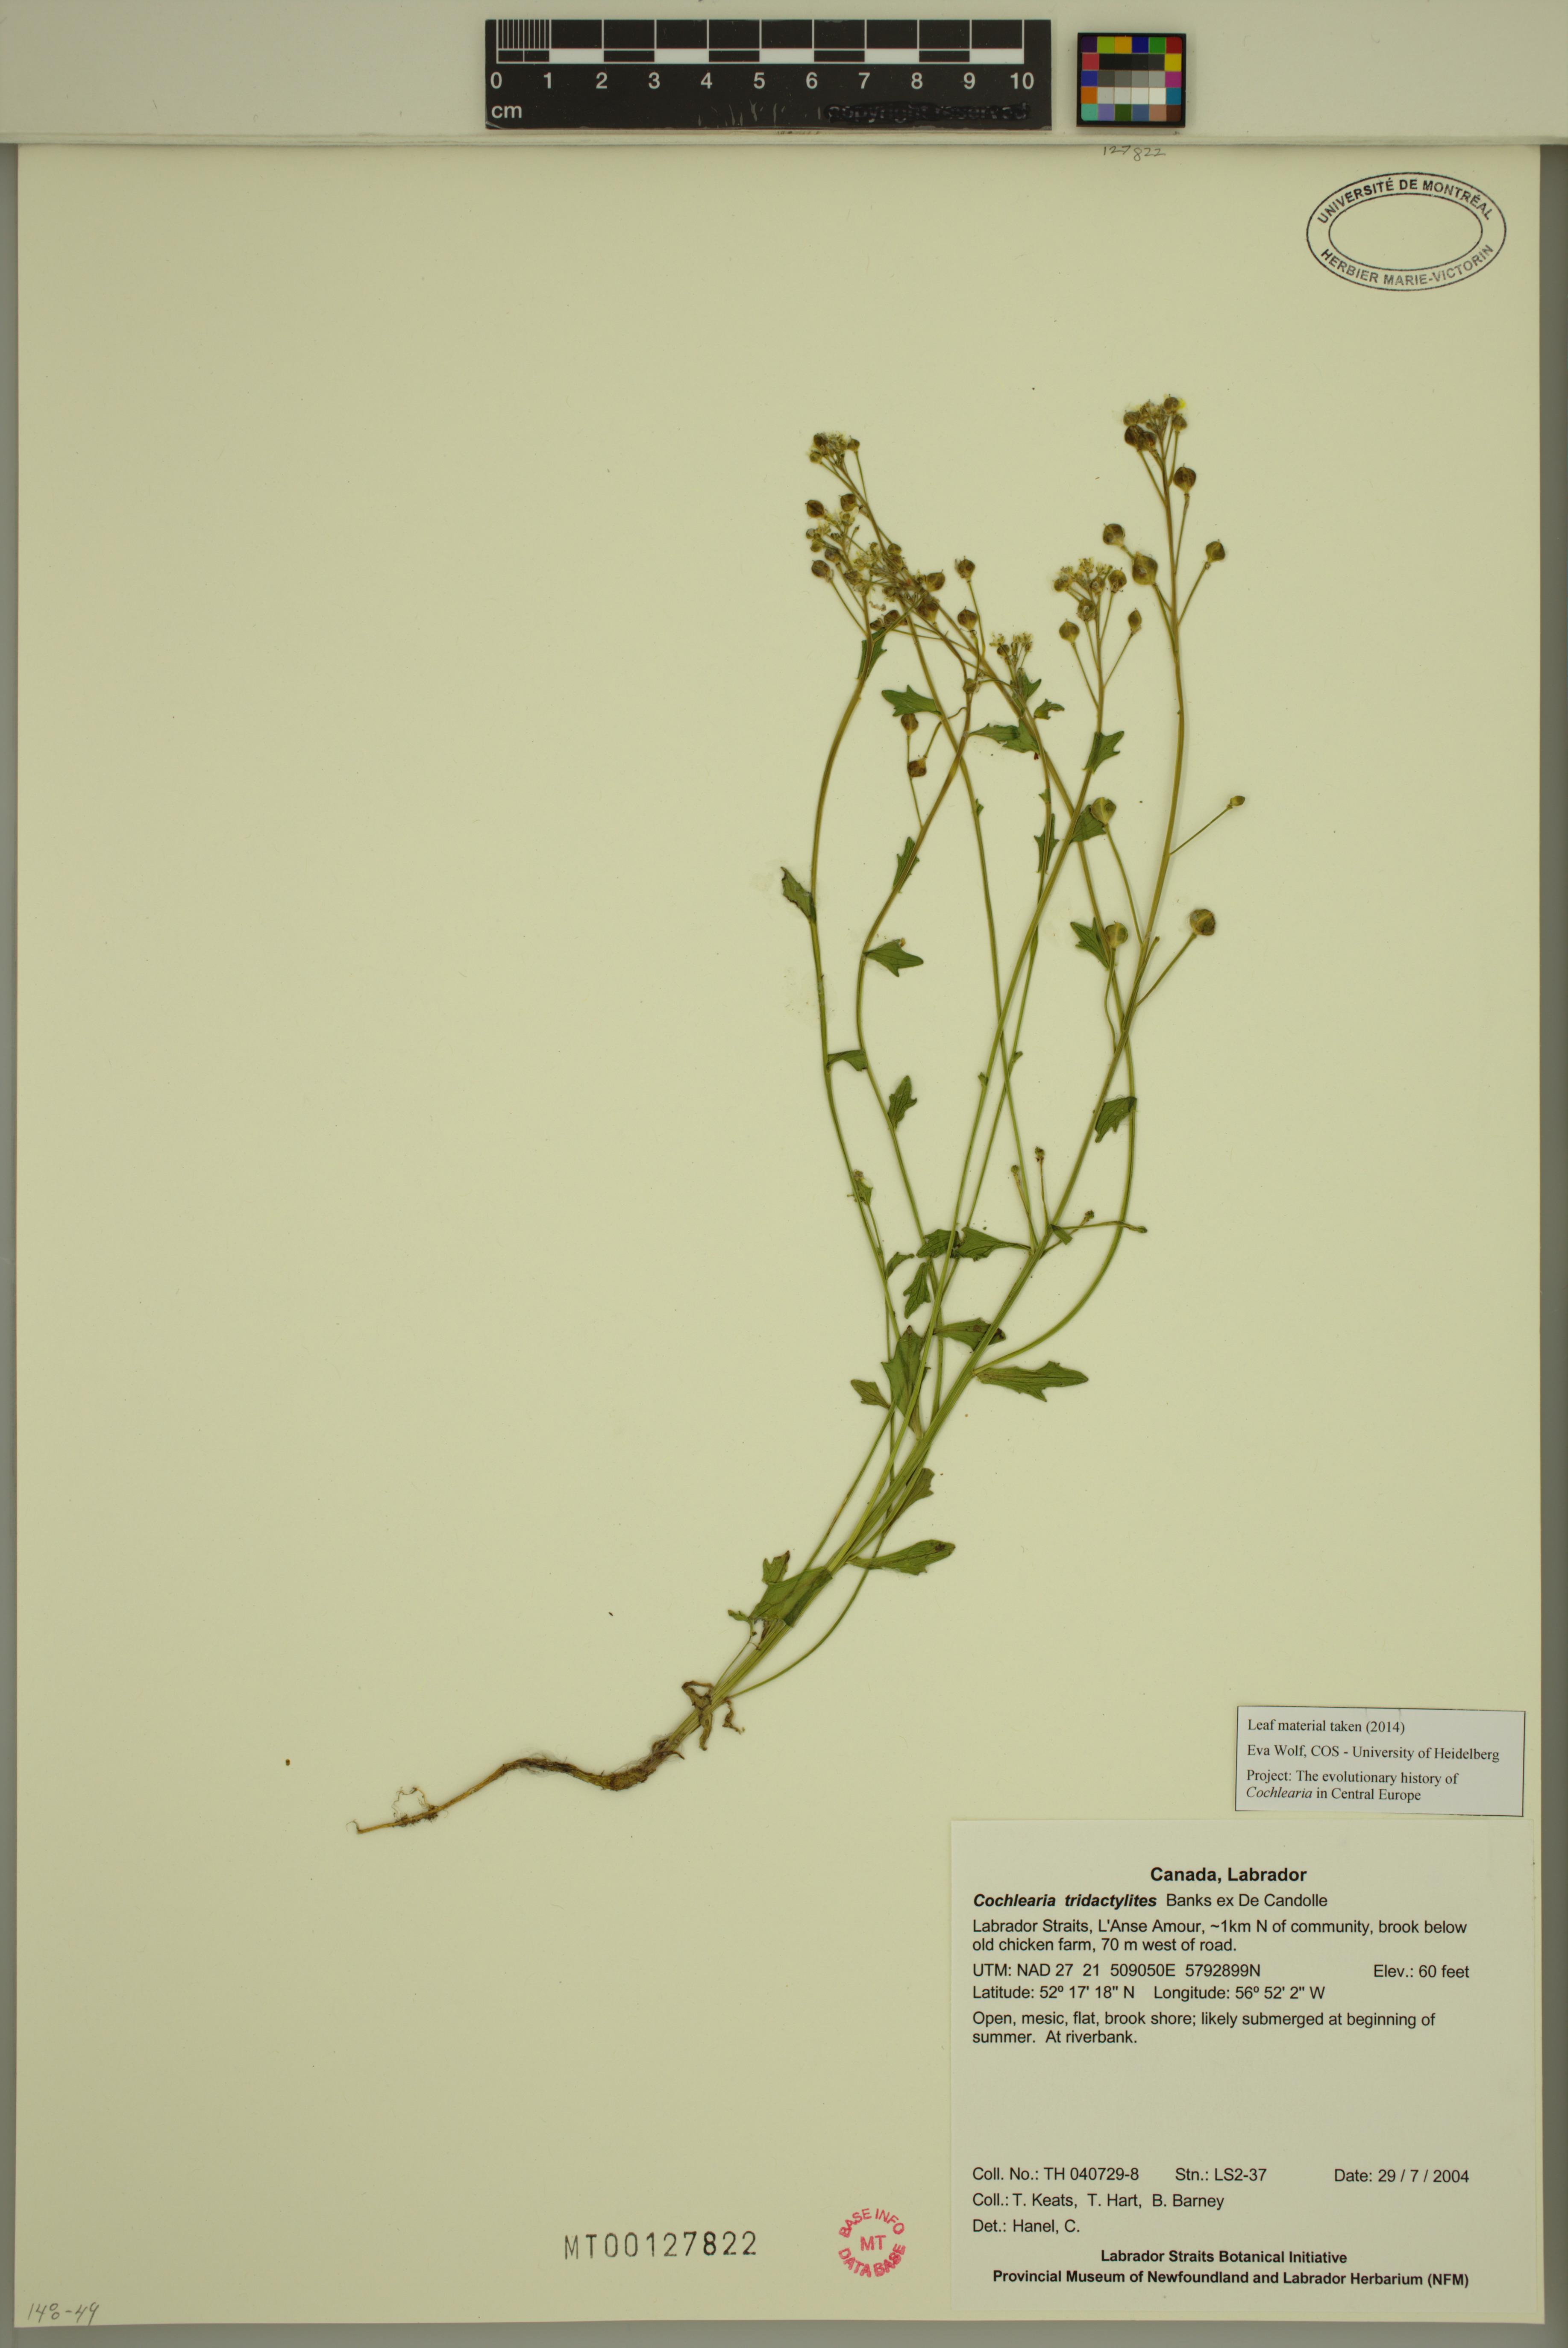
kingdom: Plantae
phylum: Tracheophyta
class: Magnoliopsida
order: Brassicales
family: Brassicaceae
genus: Cochlearia
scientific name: Cochlearia tridactylites
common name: Limestone scurvygrass
